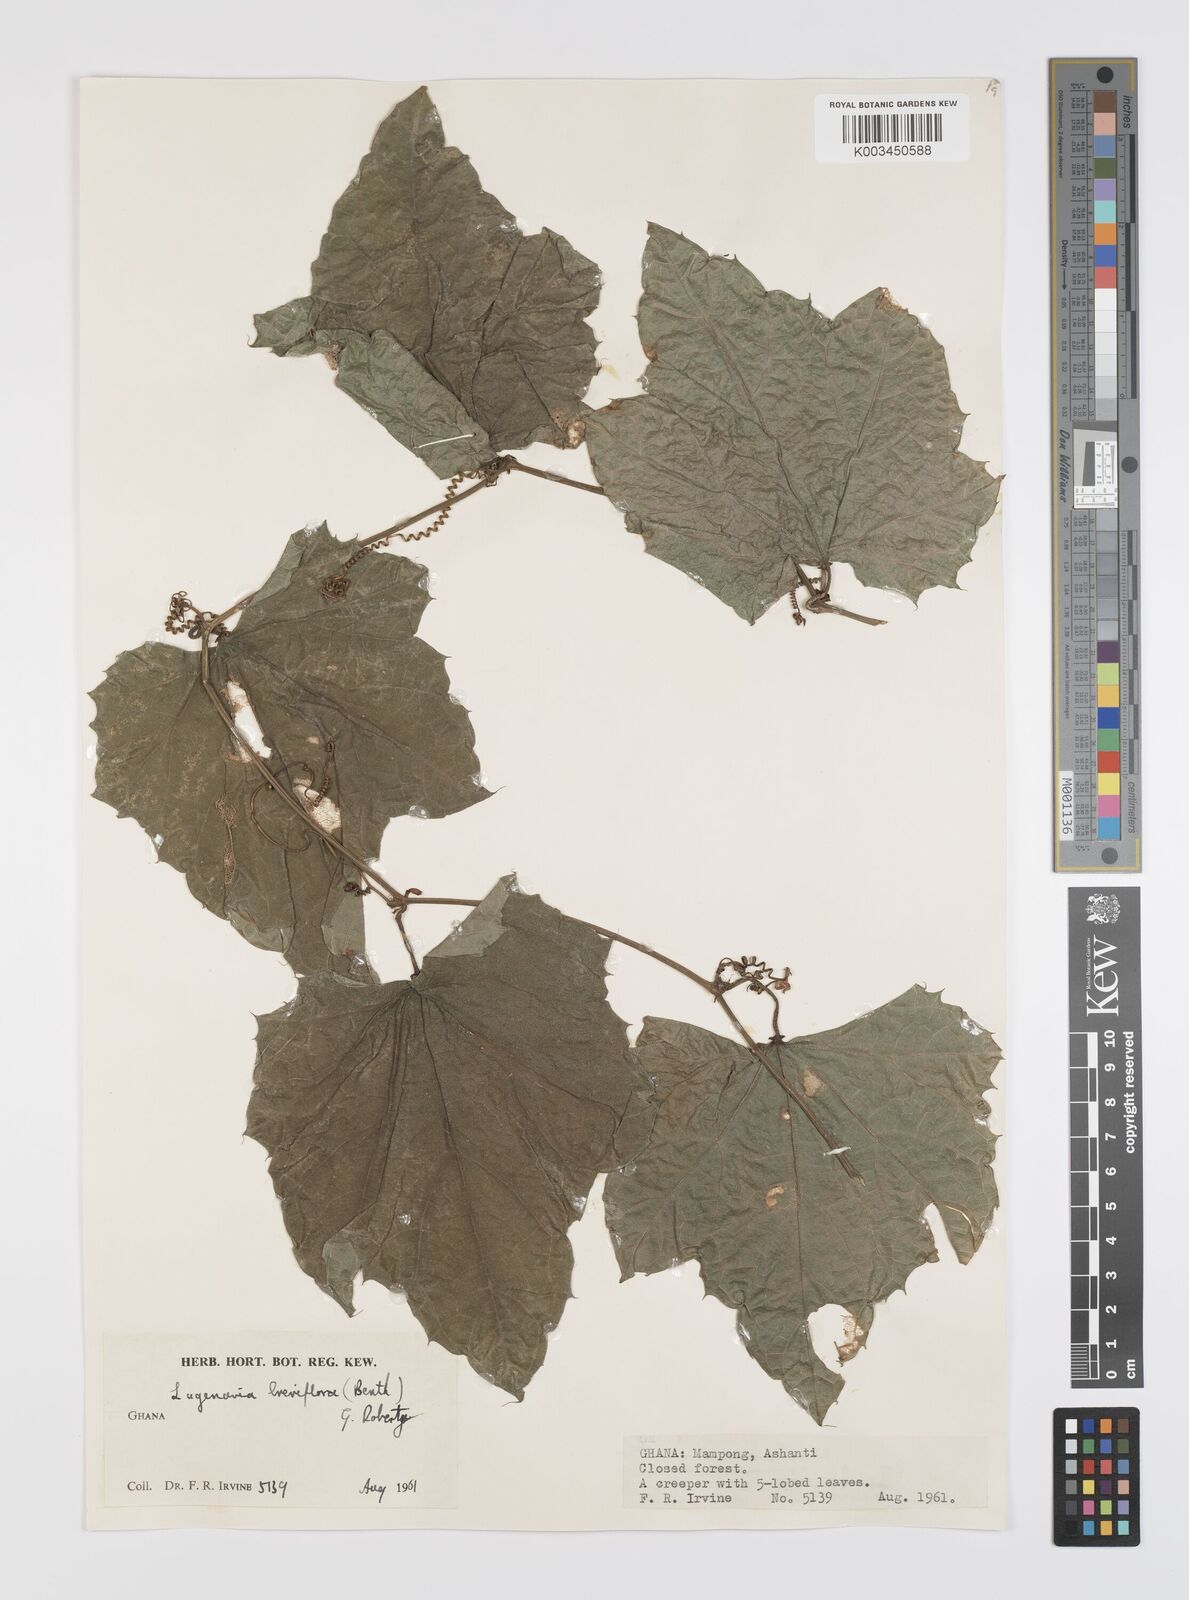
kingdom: Plantae
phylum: Tracheophyta
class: Magnoliopsida
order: Cucurbitales
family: Cucurbitaceae
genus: Lagenaria
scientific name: Lagenaria breviflora
